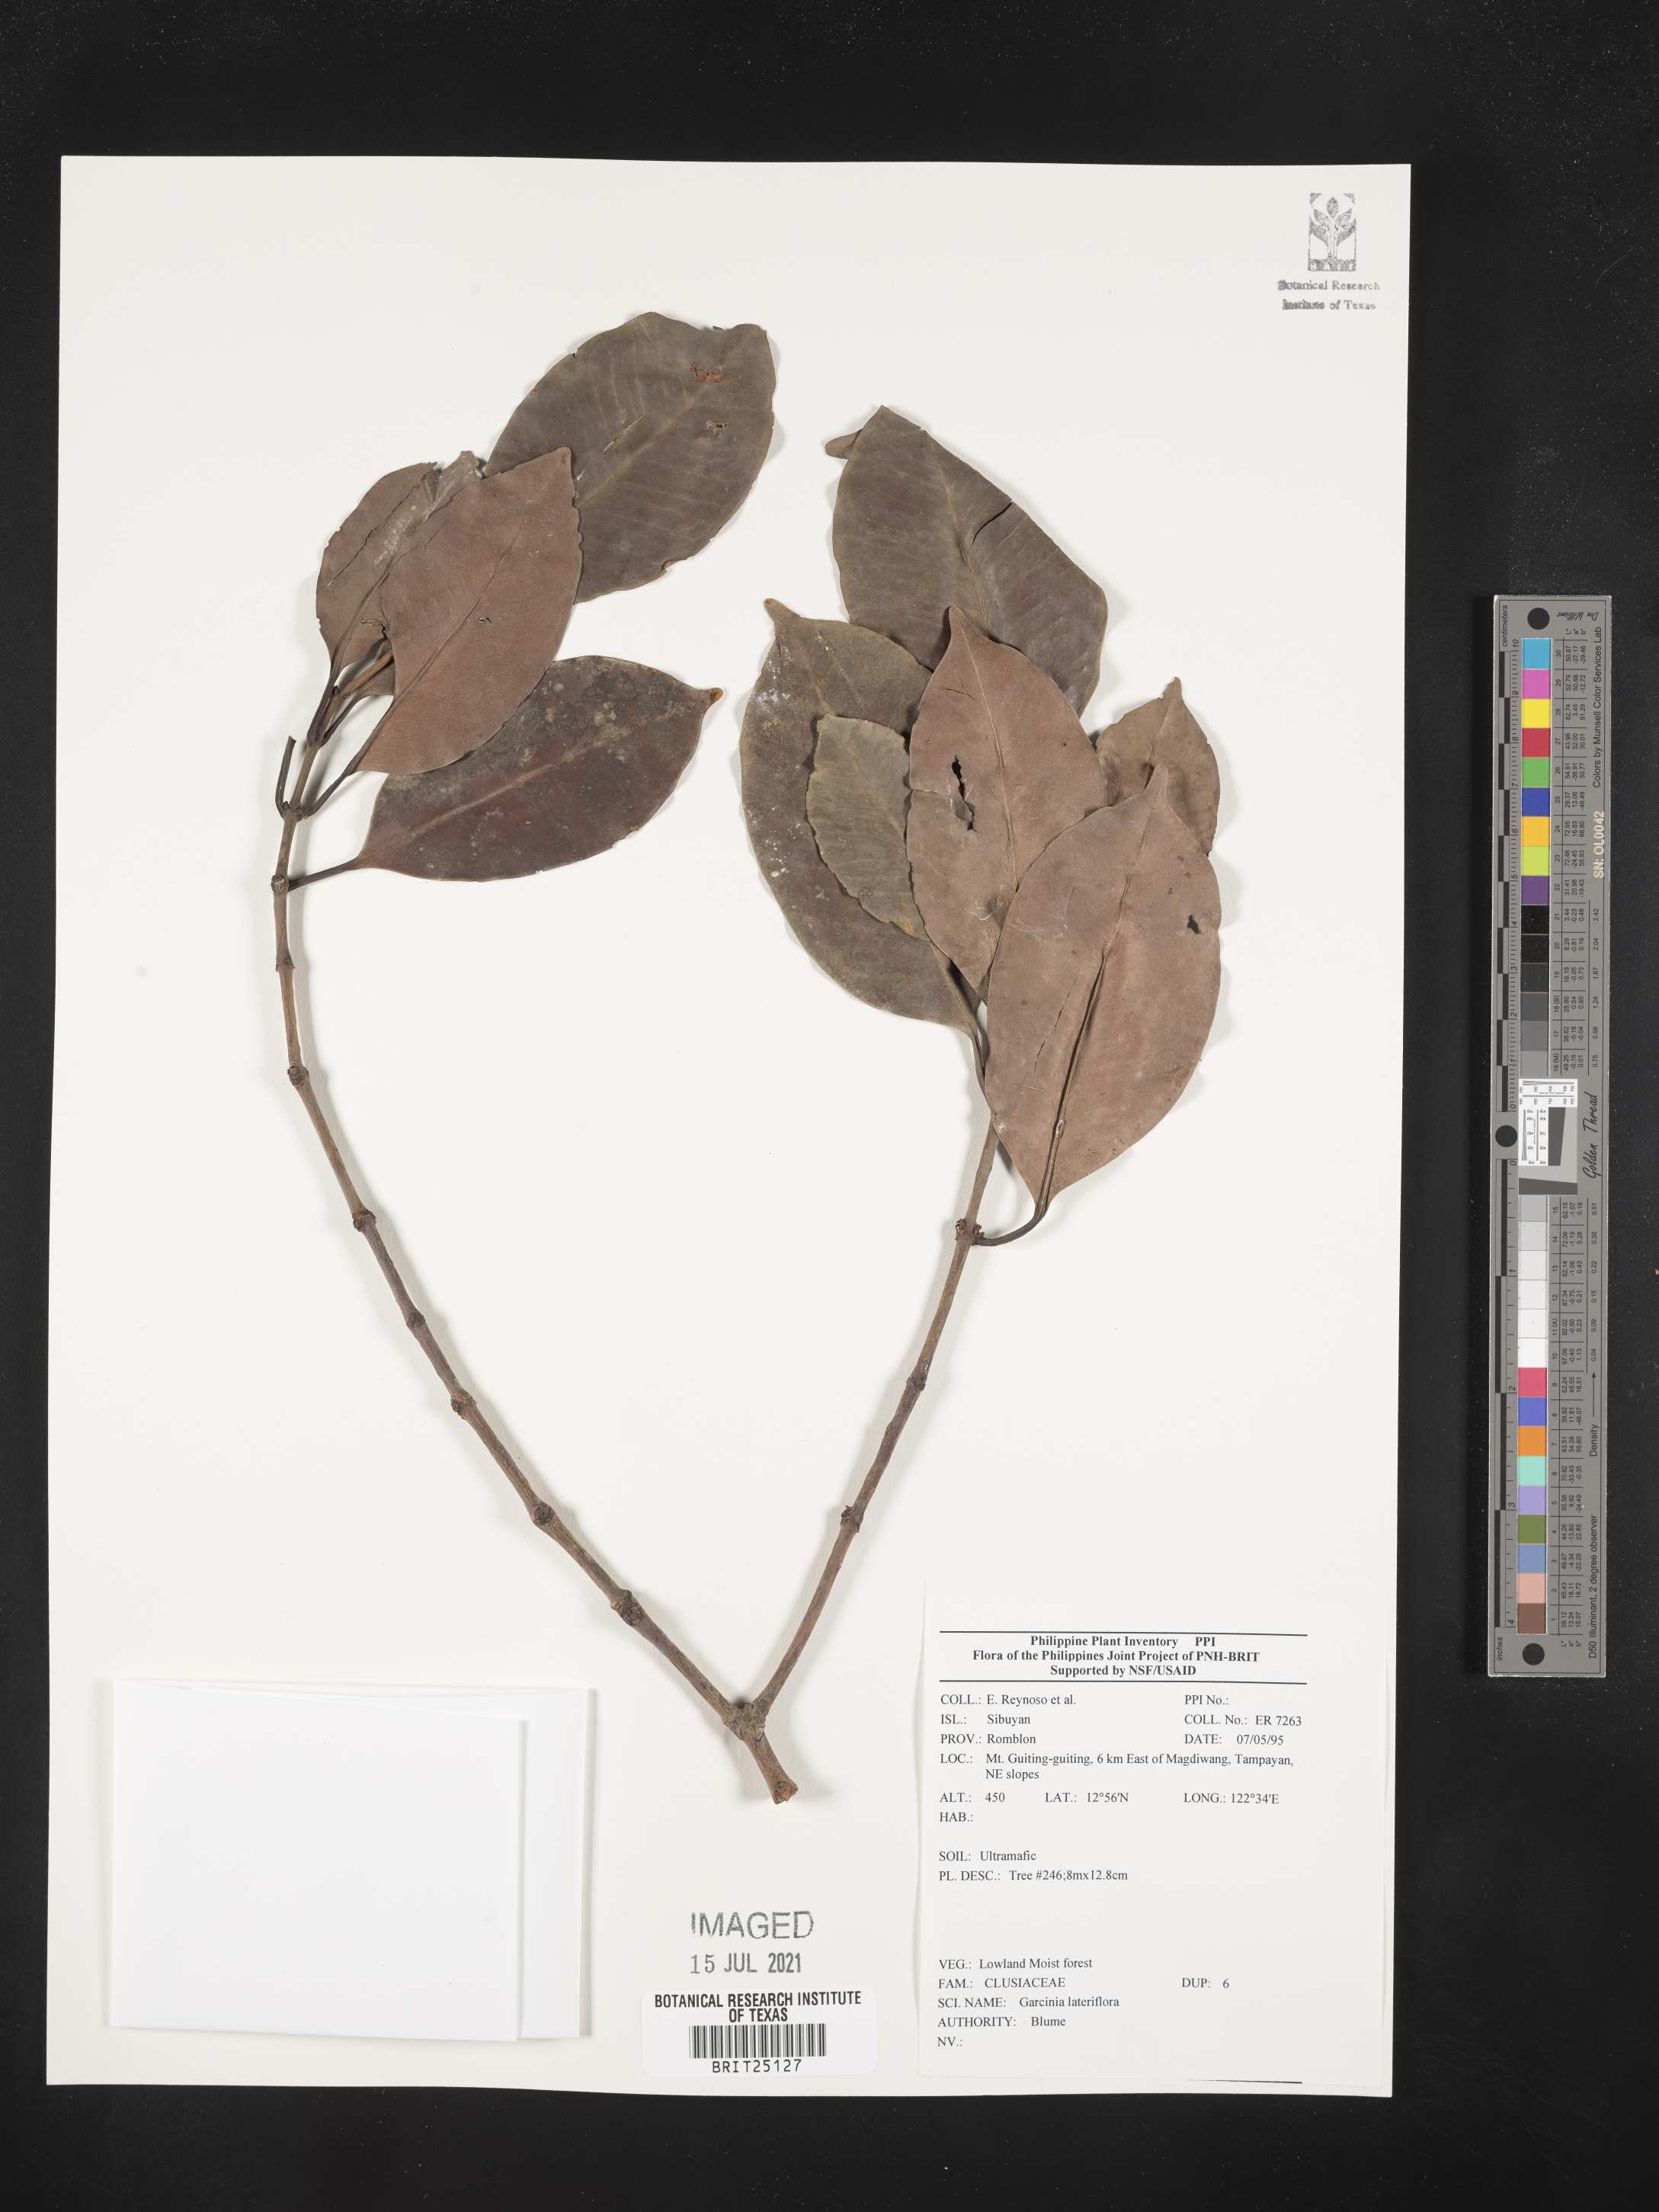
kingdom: Plantae
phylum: Tracheophyta
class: Magnoliopsida
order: Malpighiales
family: Clusiaceae
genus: Garcinia
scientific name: Garcinia lateriflora
